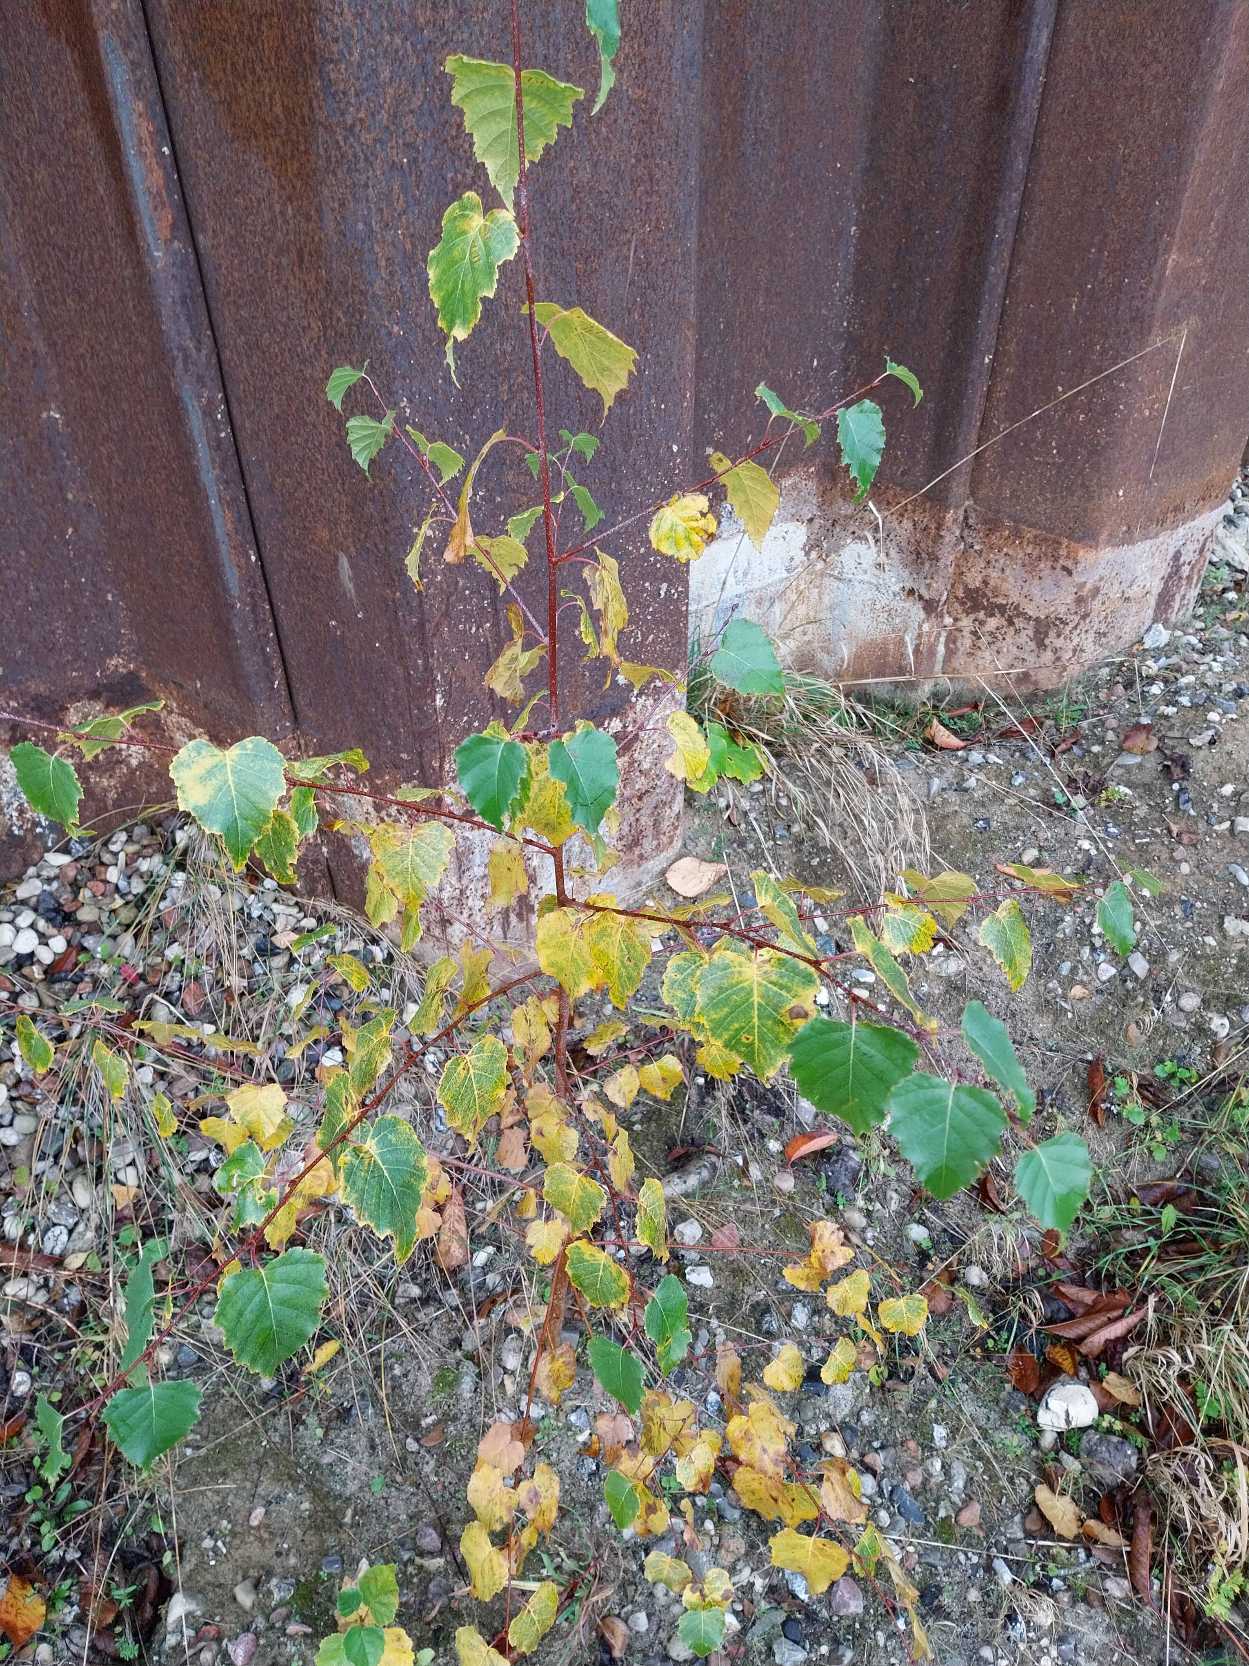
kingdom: Plantae
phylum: Tracheophyta
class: Magnoliopsida
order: Fagales
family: Betulaceae
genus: Betula
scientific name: Betula pendula
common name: Vorte-birk
